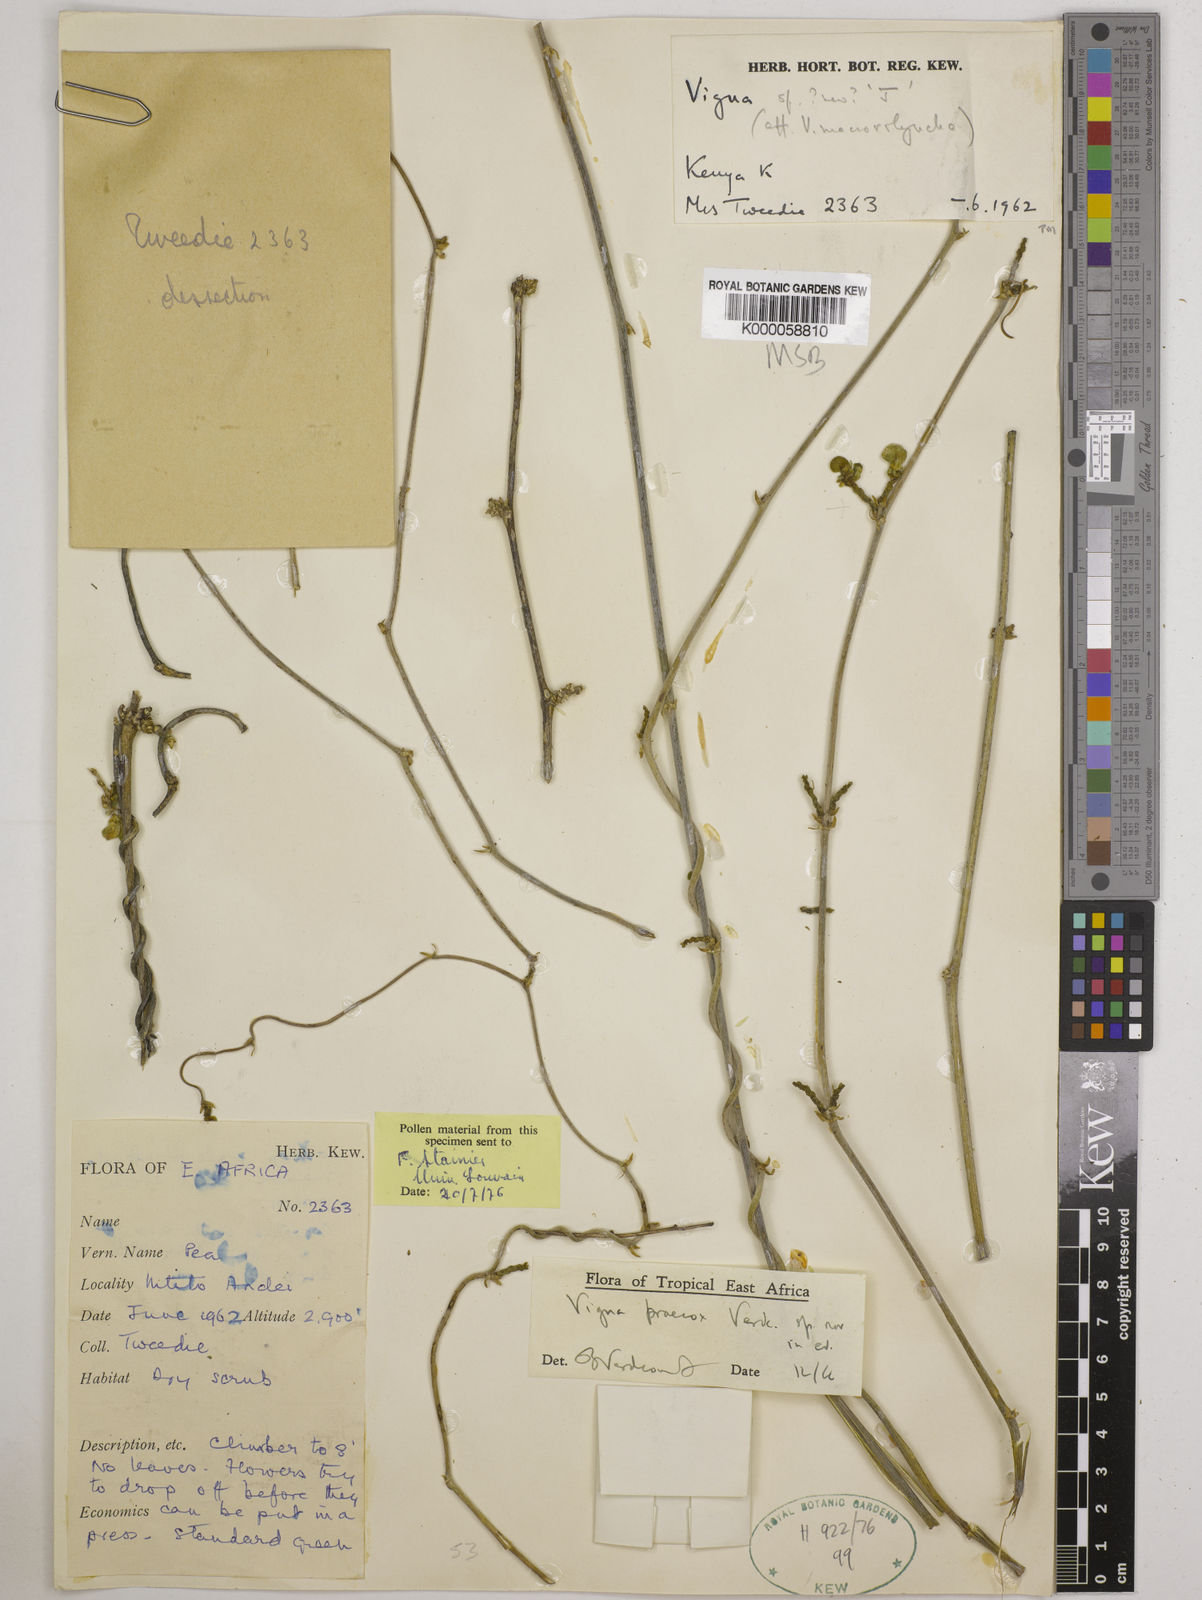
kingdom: Plantae
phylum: Tracheophyta
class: Magnoliopsida
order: Fabales
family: Fabaceae
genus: Wajira
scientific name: Wajira praecox
